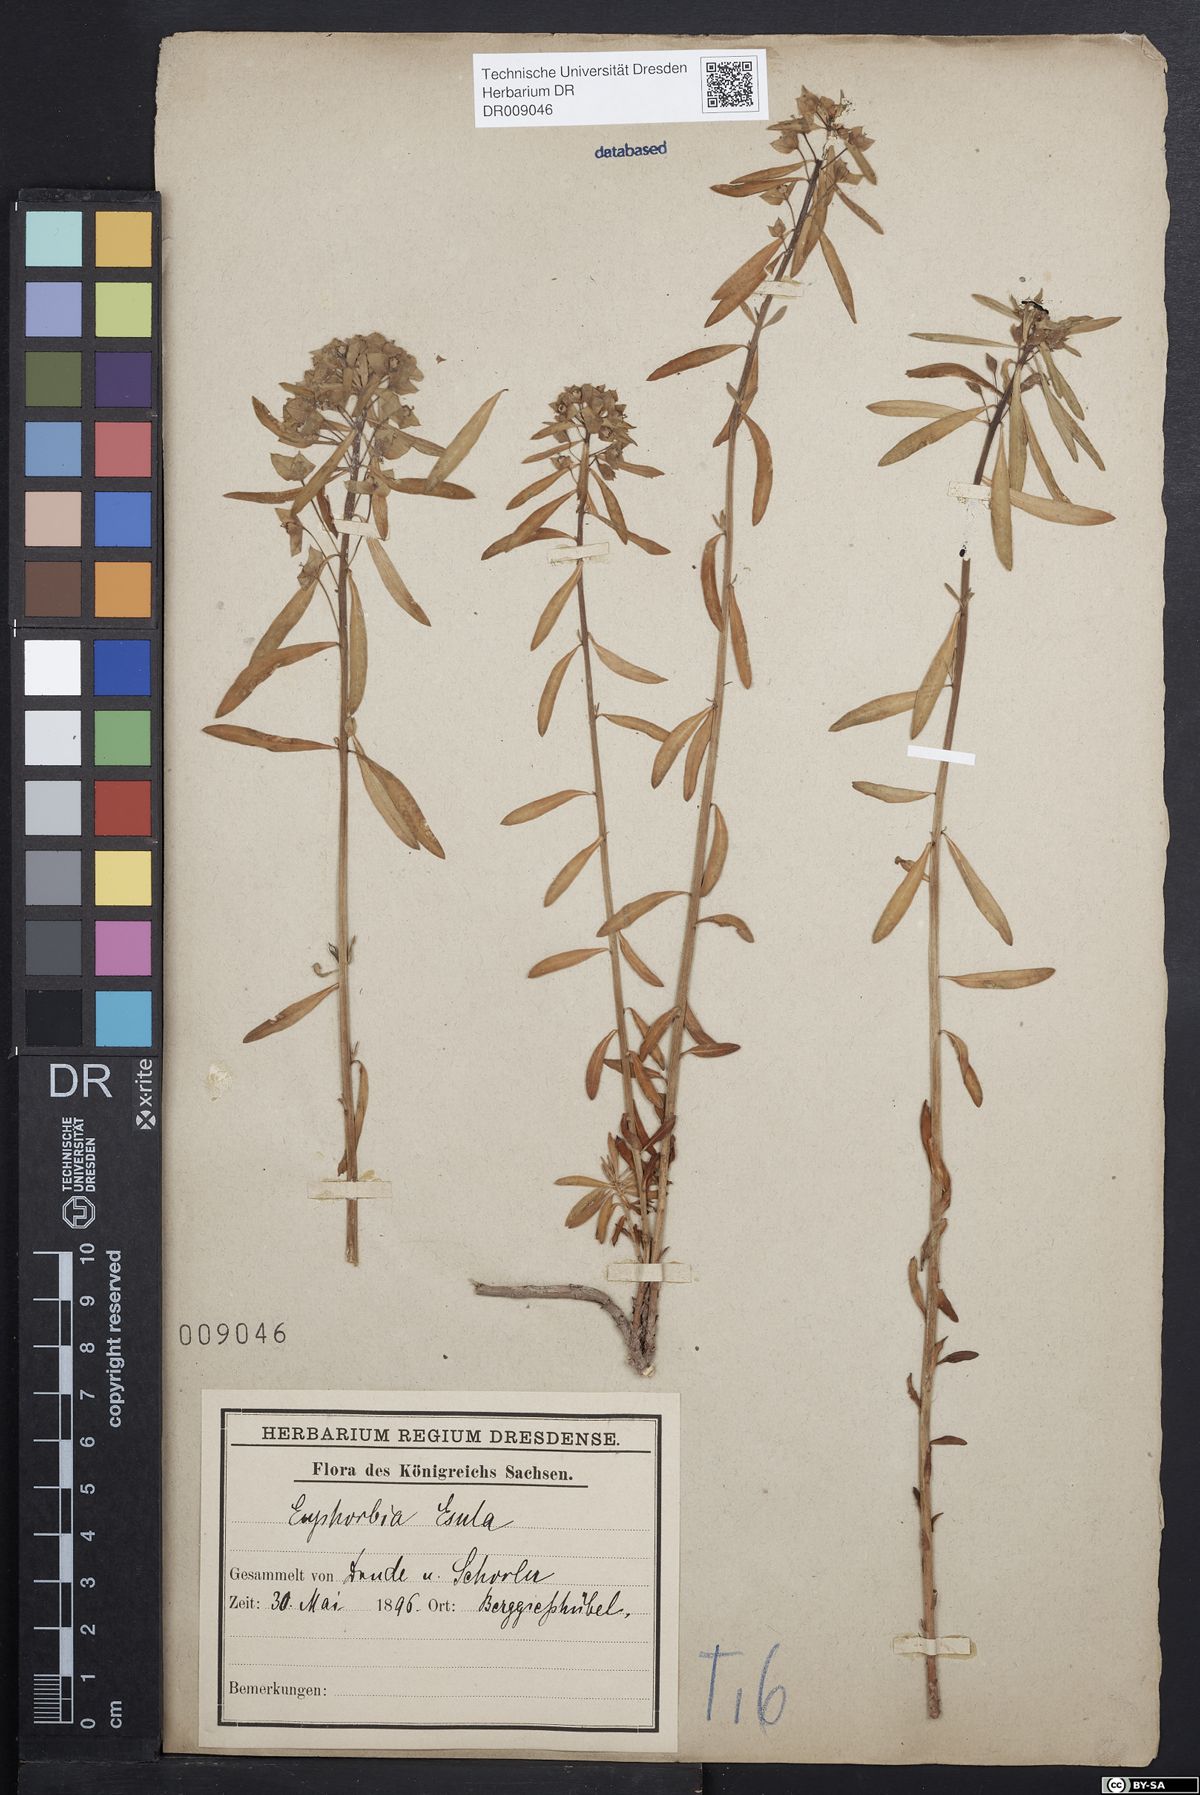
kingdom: Plantae
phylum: Tracheophyta
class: Magnoliopsida
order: Malpighiales
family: Euphorbiaceae
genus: Euphorbia
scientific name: Euphorbia esula
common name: Leafy spurge
